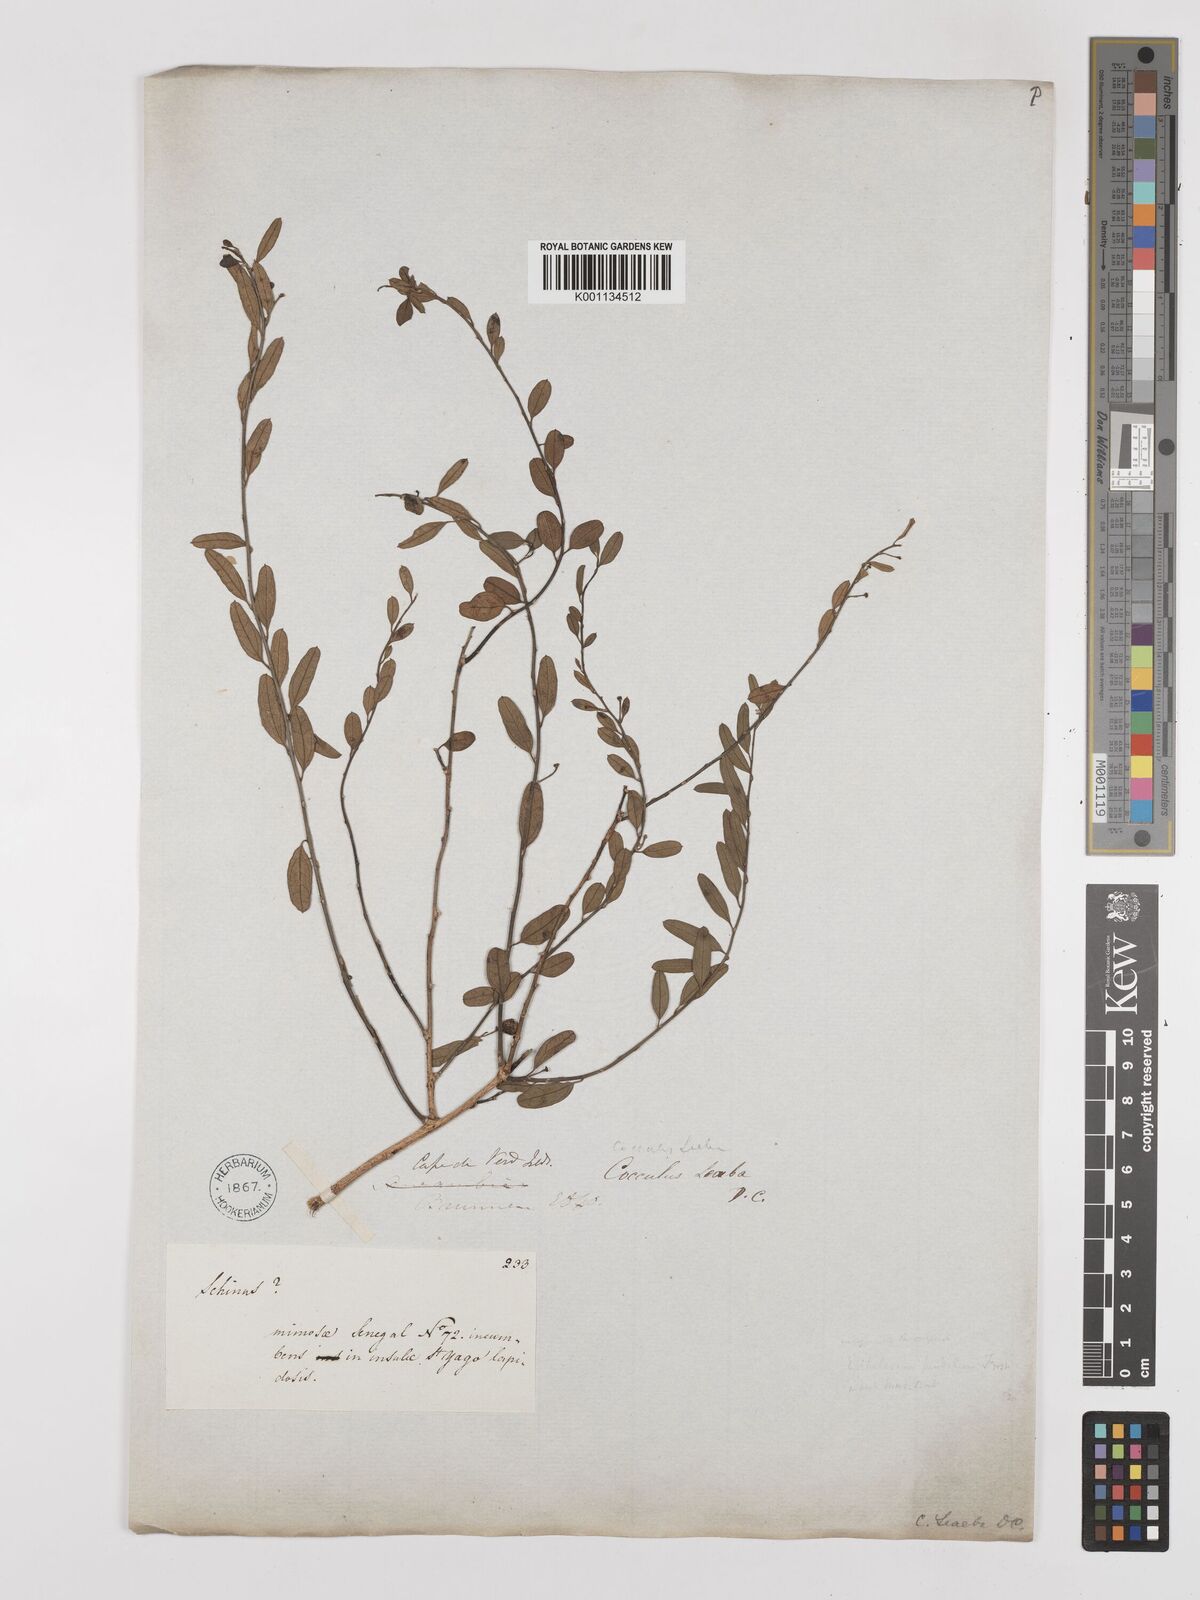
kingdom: Plantae
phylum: Tracheophyta
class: Magnoliopsida
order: Ranunculales
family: Menispermaceae
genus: Cocculus
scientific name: Cocculus pendulus
